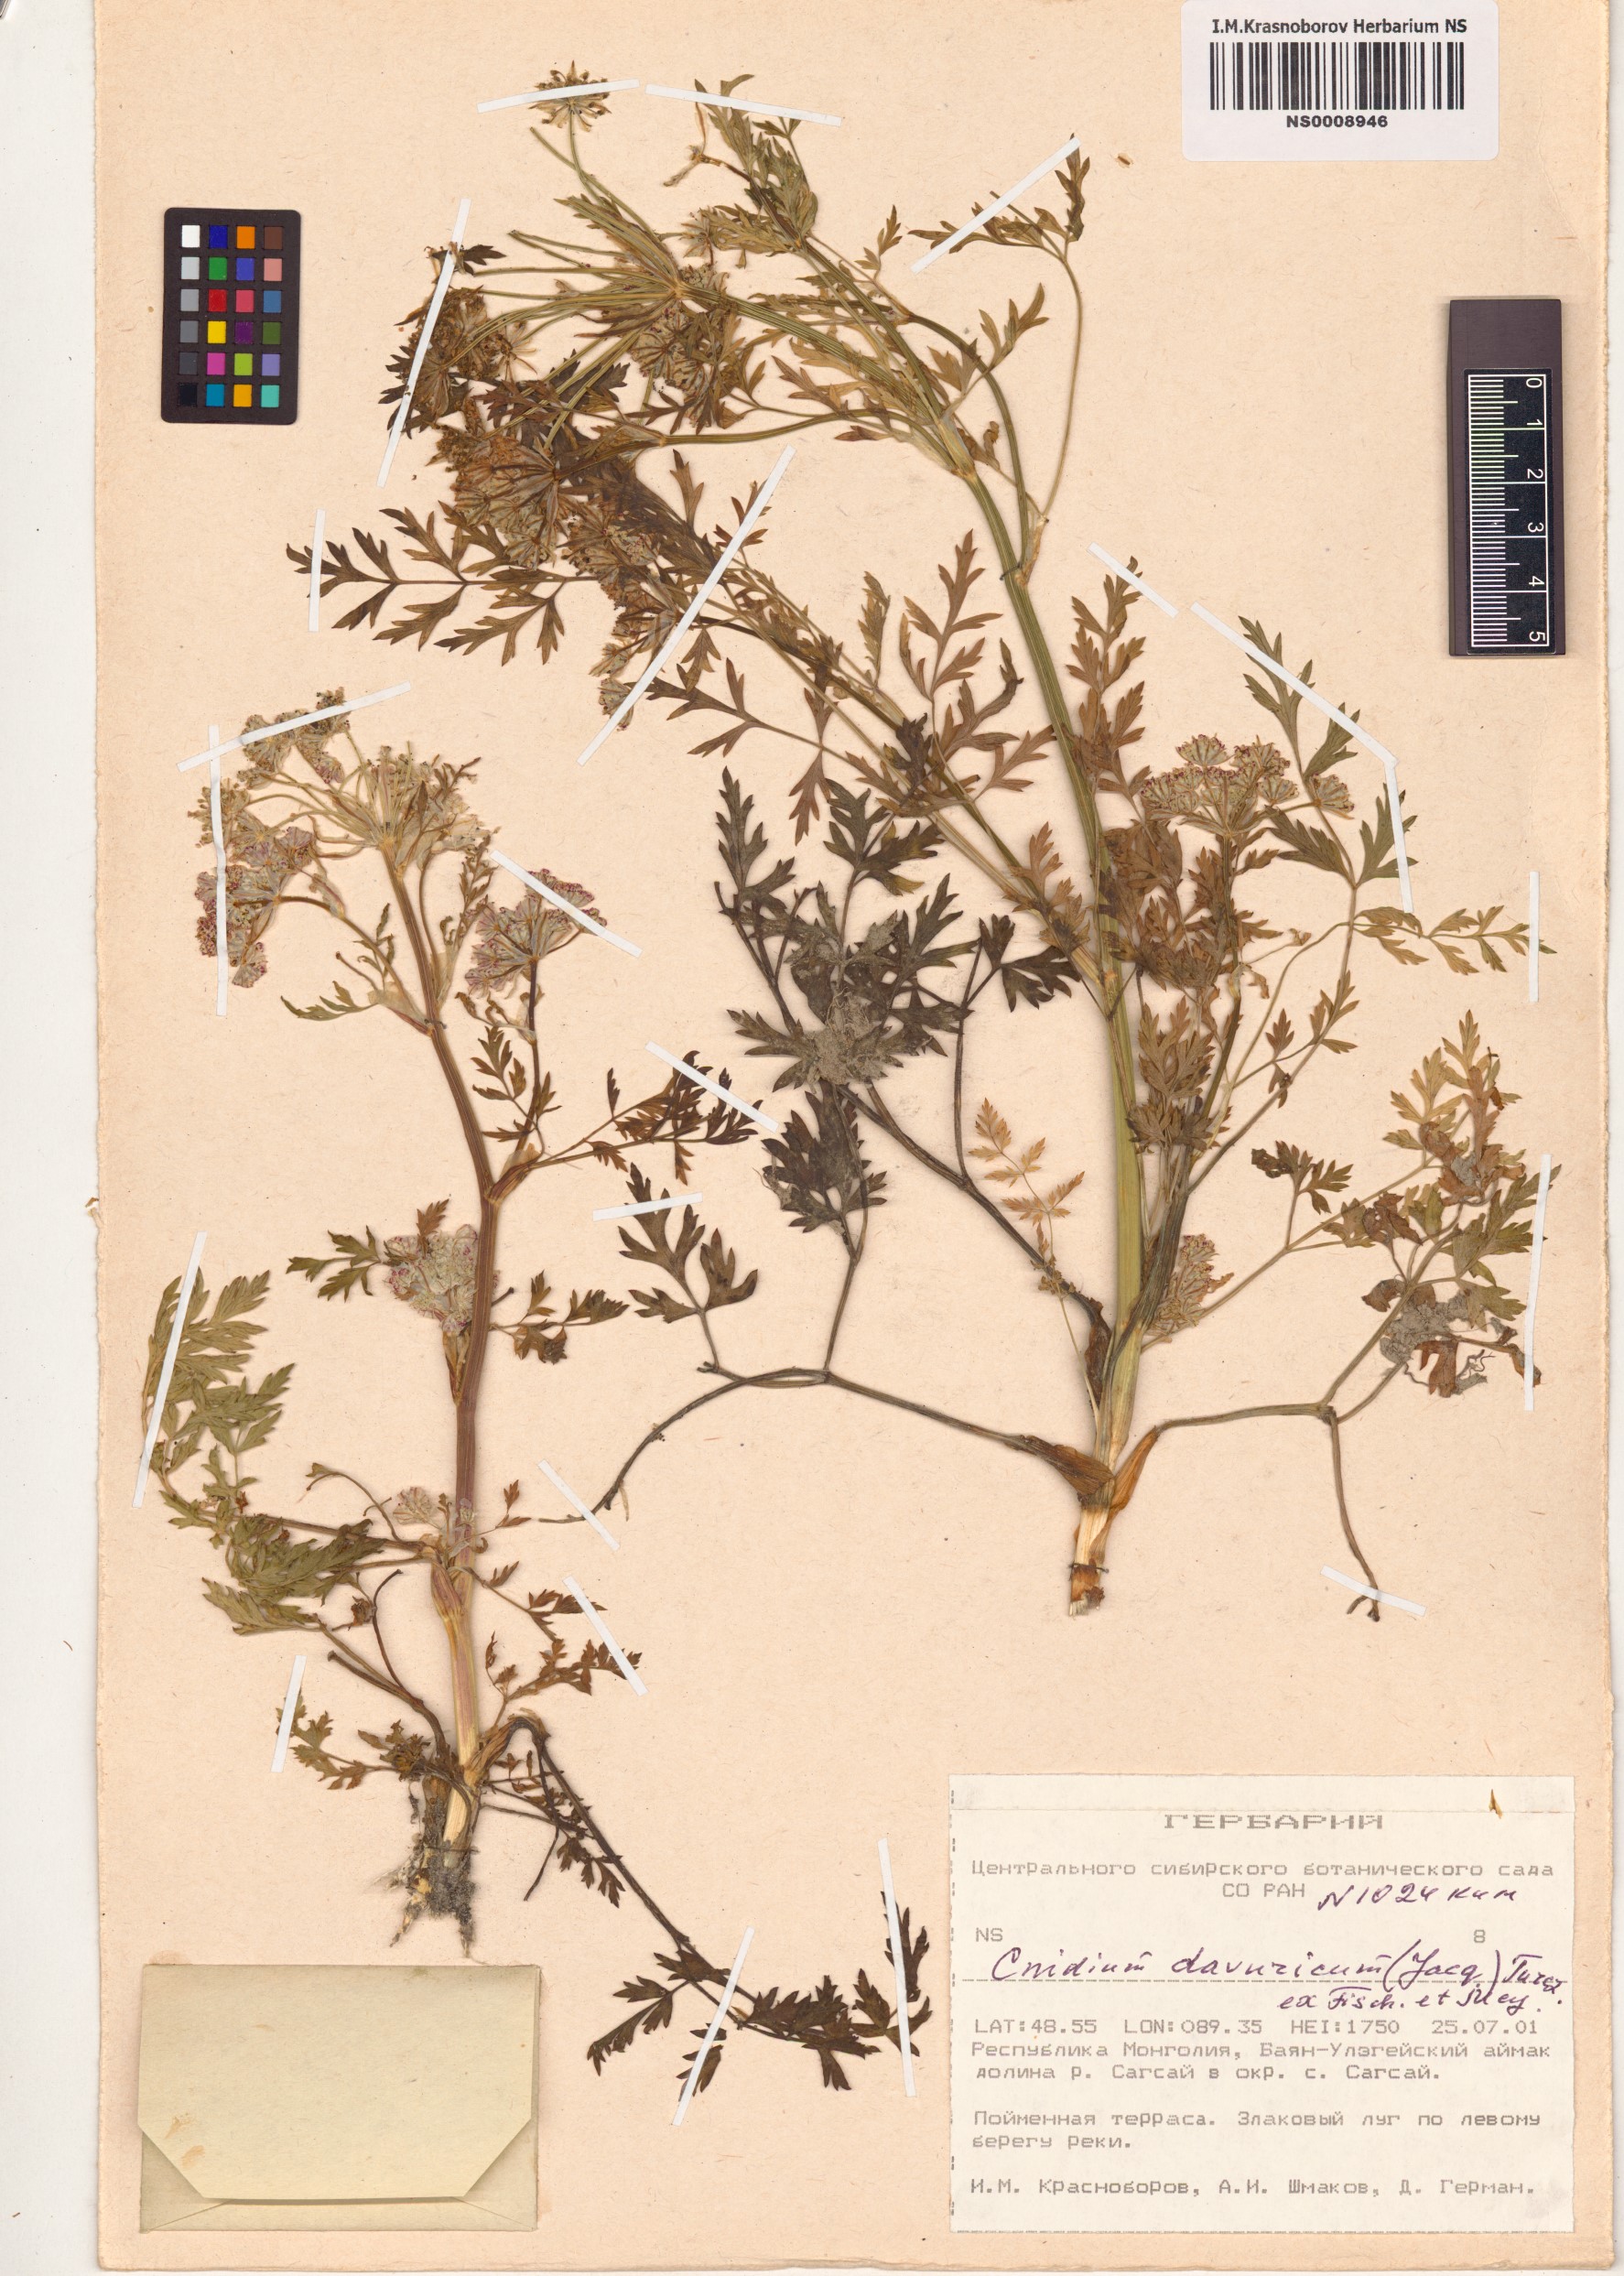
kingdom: Plantae
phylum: Tracheophyta
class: Magnoliopsida
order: Apiales
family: Apiaceae
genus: Cnidium
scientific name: Cnidium dauricum
